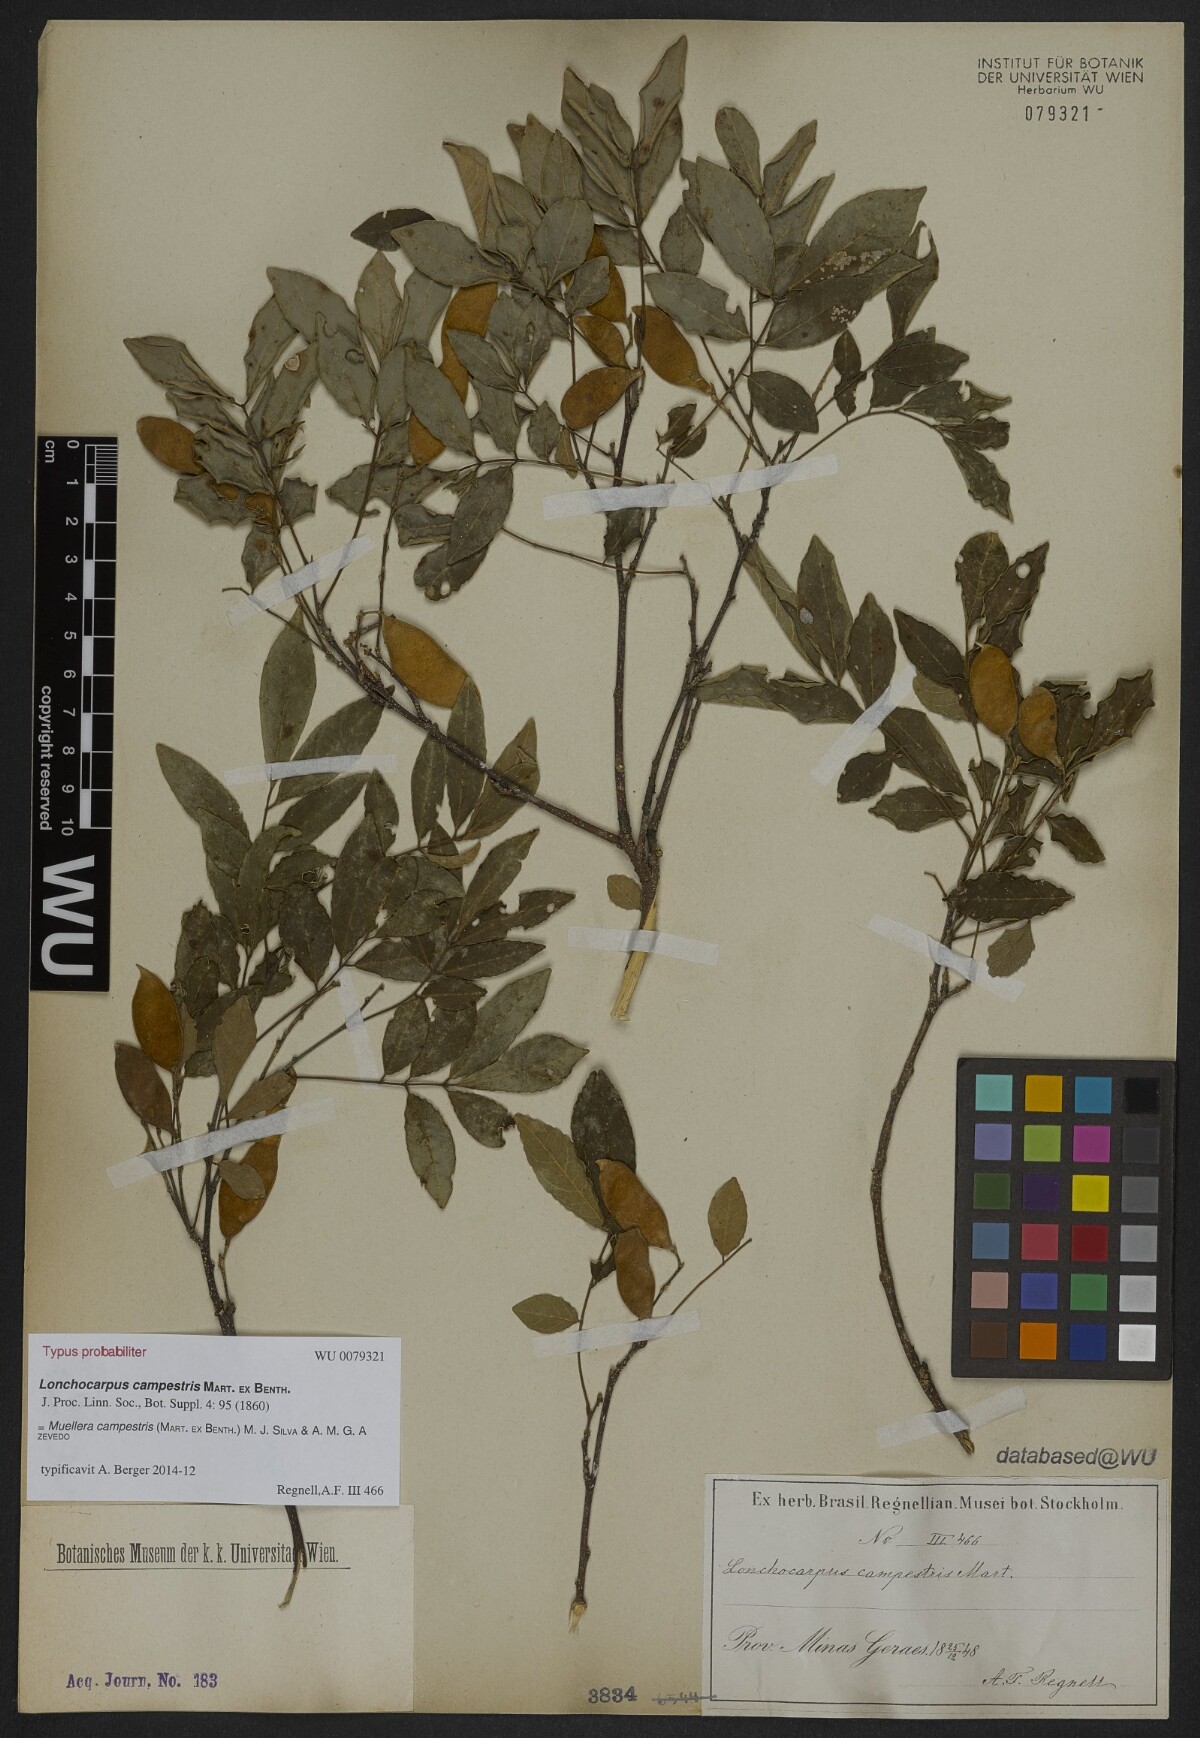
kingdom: Plantae
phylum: Tracheophyta
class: Magnoliopsida
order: Fabales
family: Fabaceae
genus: Muellera
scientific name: Muellera campestris
